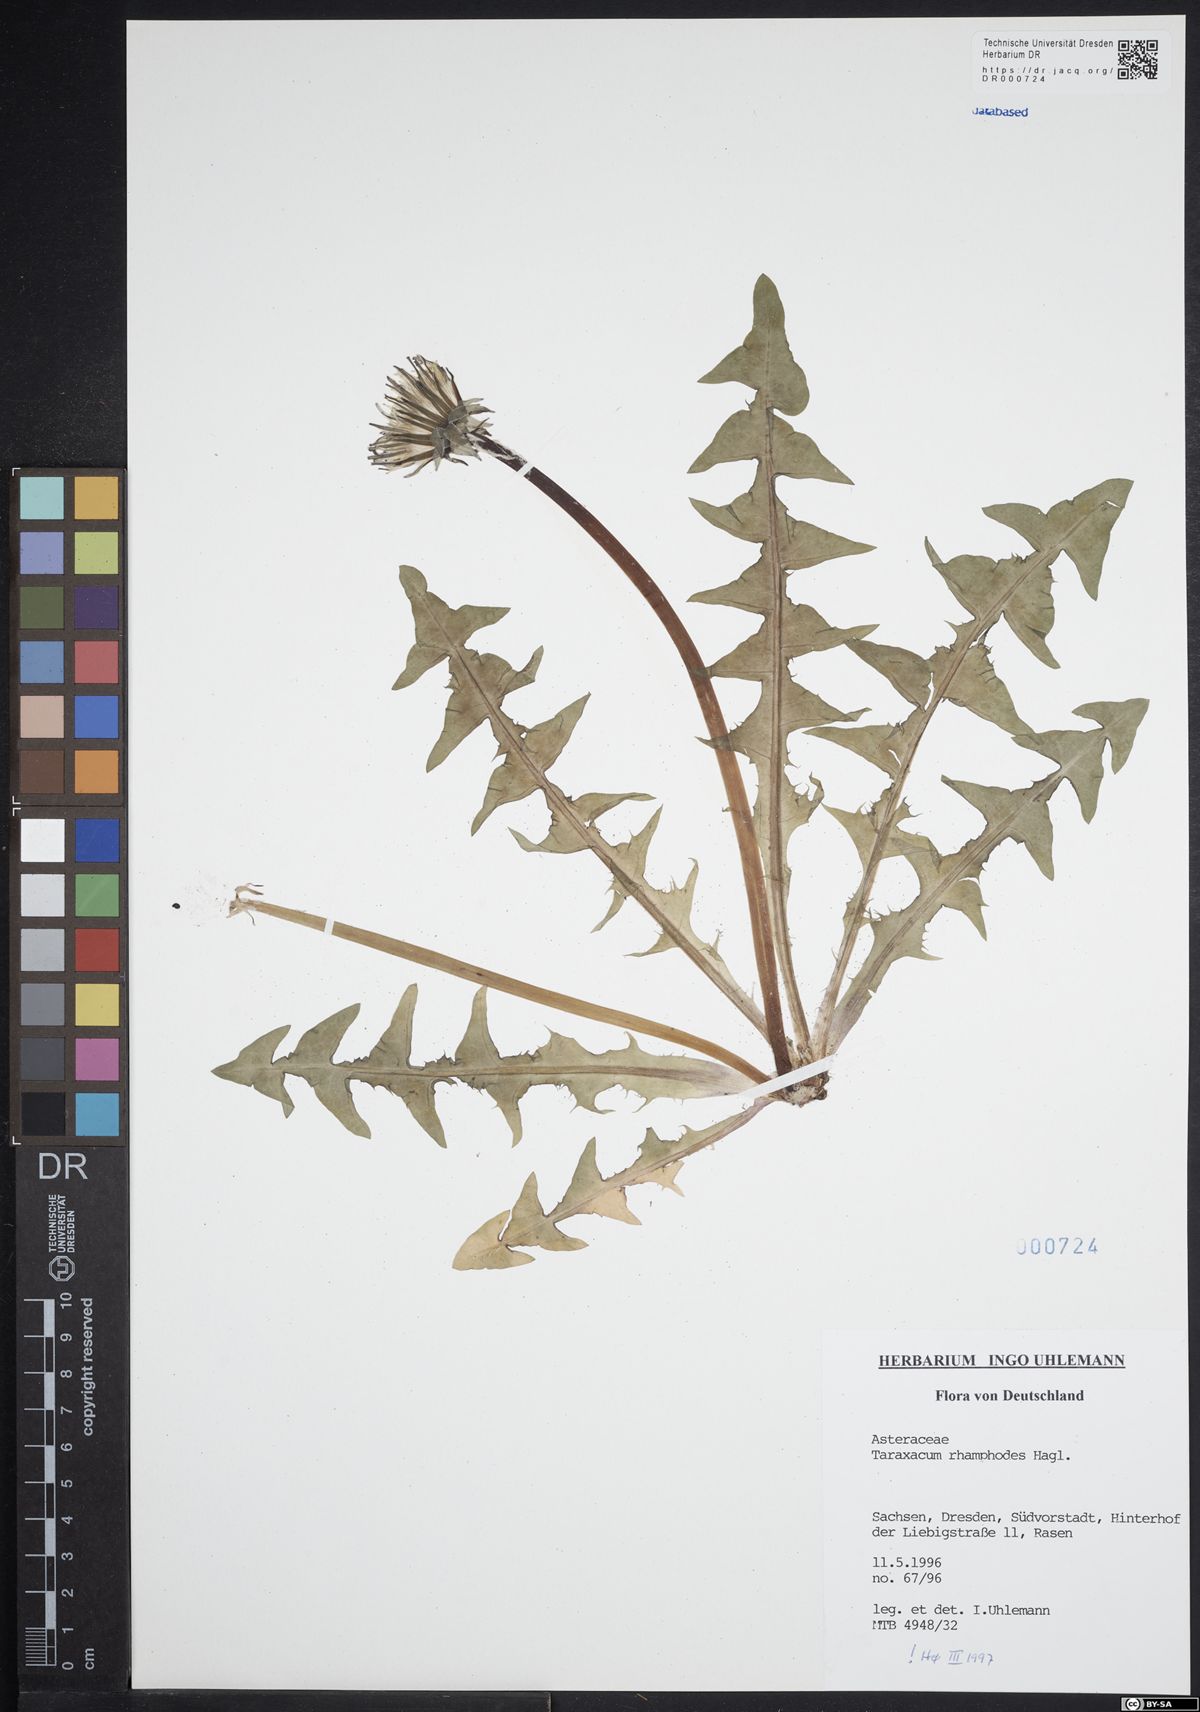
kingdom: Plantae
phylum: Tracheophyta
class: Magnoliopsida
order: Asterales
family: Asteraceae
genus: Taraxacum
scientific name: Taraxacum rhamphodes
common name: Robust dandelion
